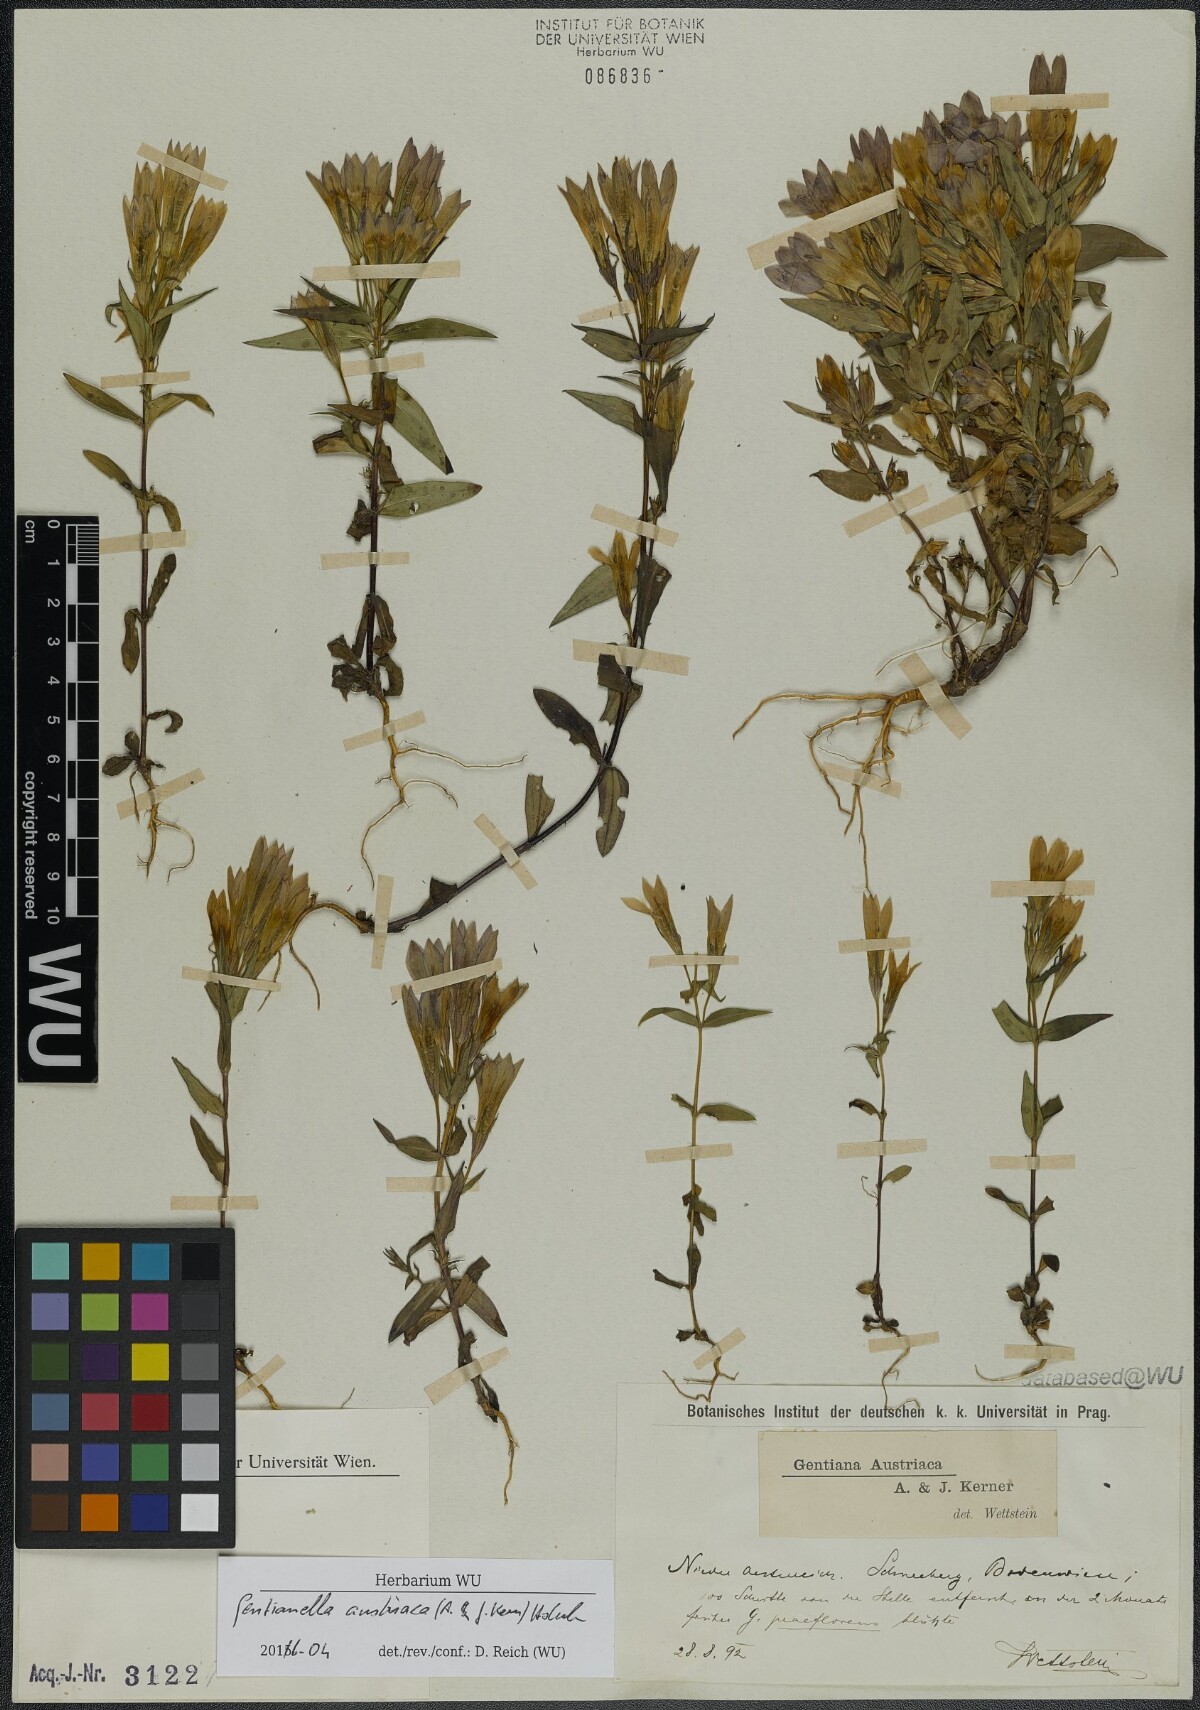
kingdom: Plantae
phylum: Tracheophyta
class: Magnoliopsida
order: Gentianales
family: Gentianaceae
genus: Gentianella
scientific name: Gentianella austriaca
